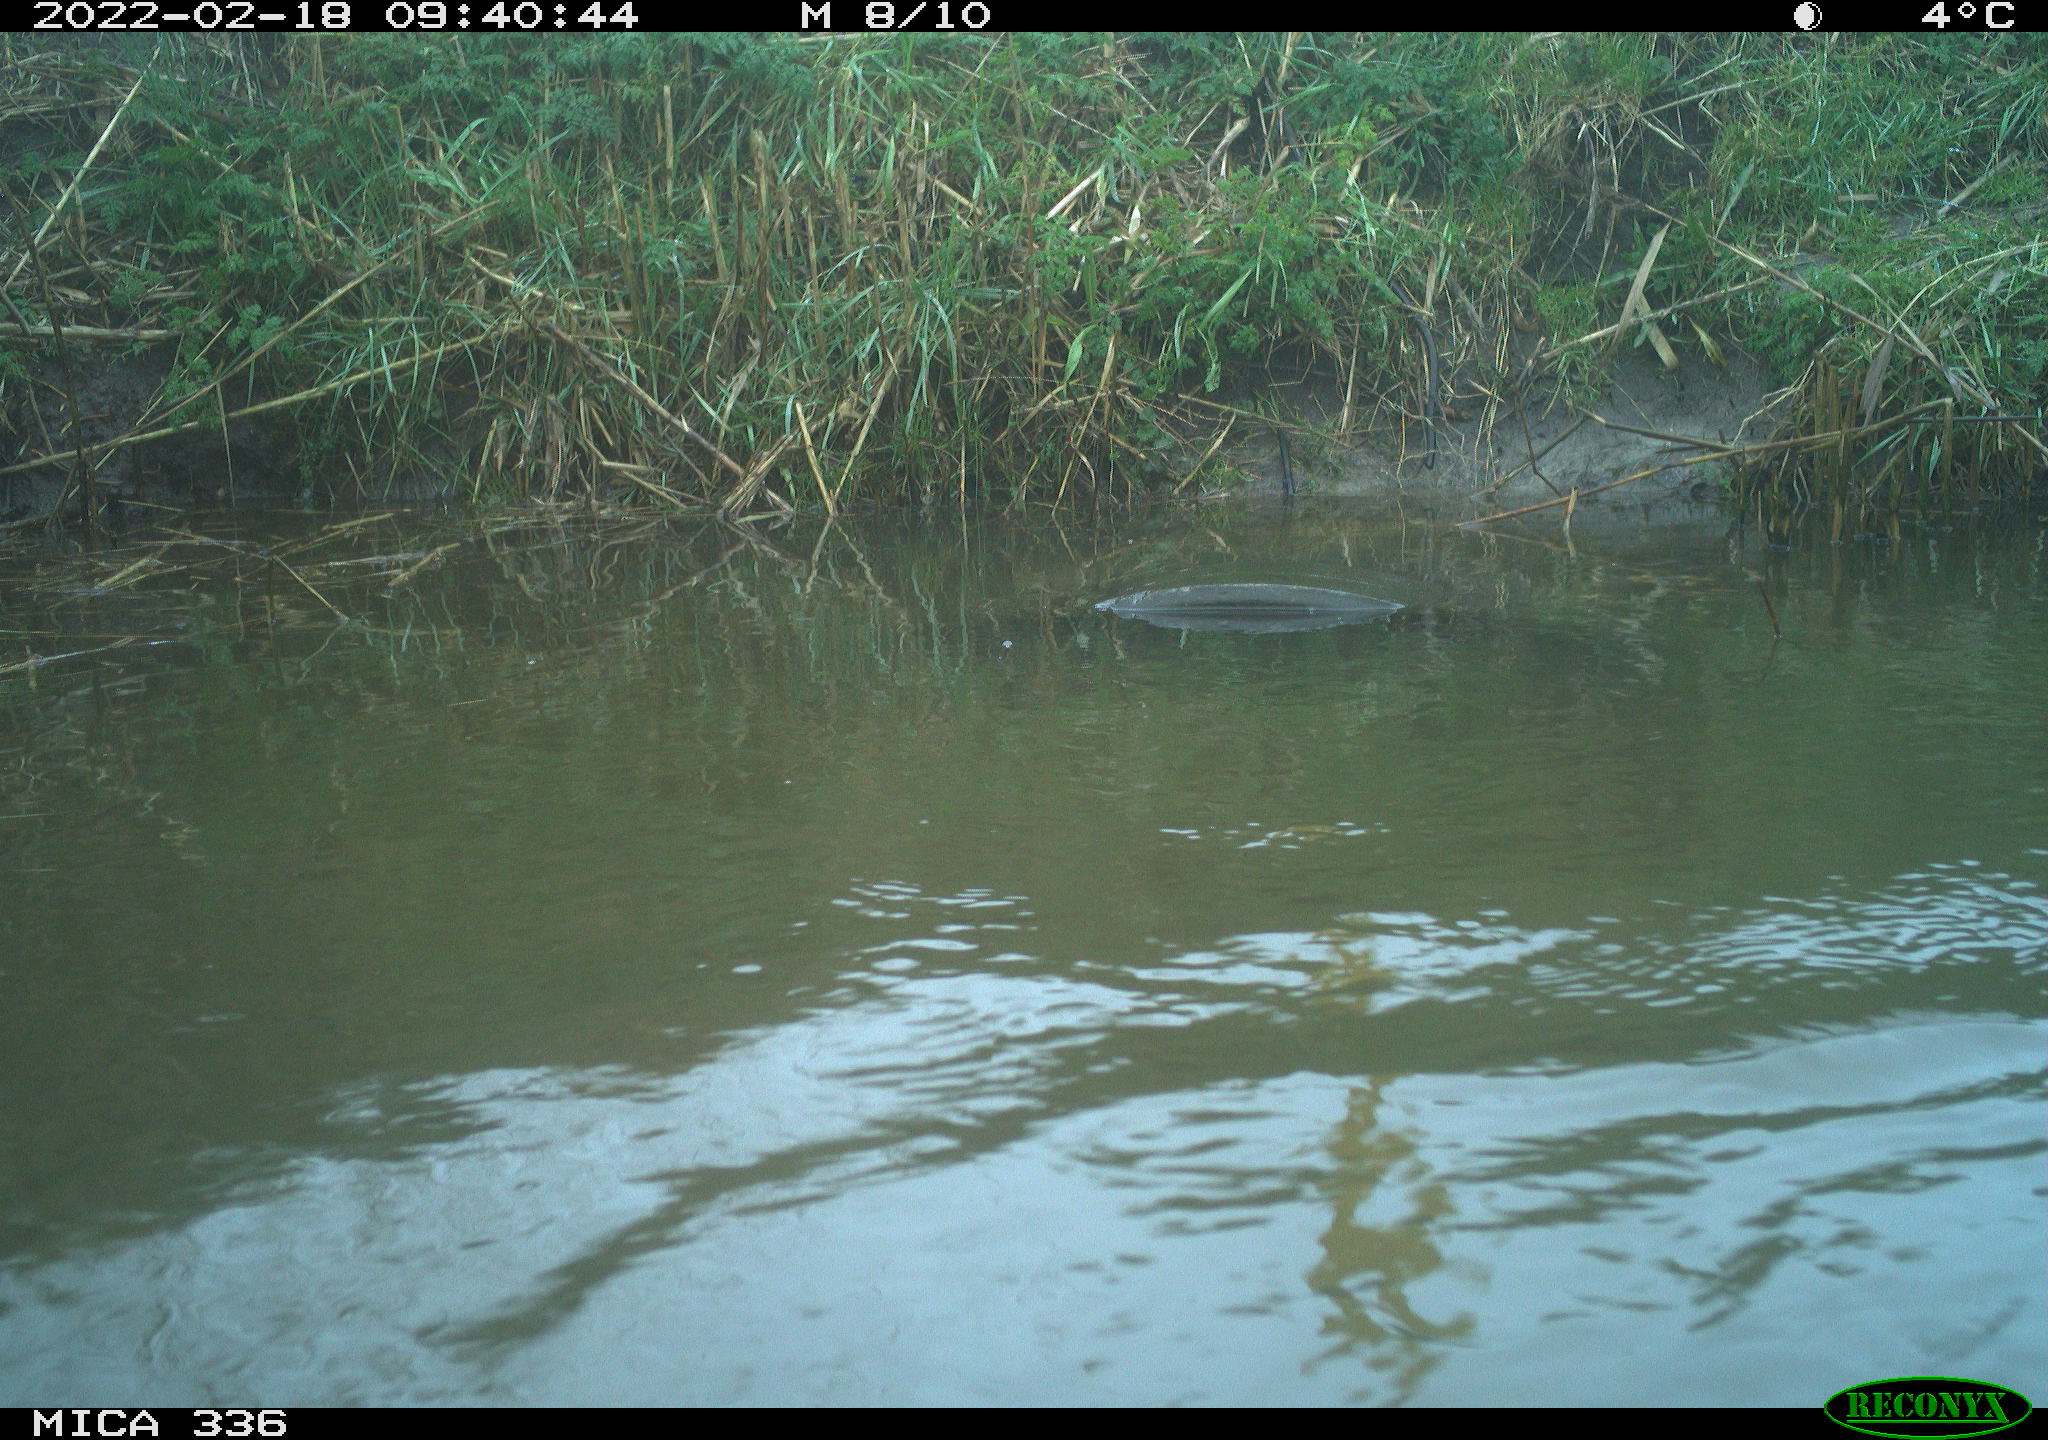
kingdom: Animalia
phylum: Chordata
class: Aves
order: Suliformes
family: Phalacrocoracidae
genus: Phalacrocorax
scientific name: Phalacrocorax carbo
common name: Great cormorant
